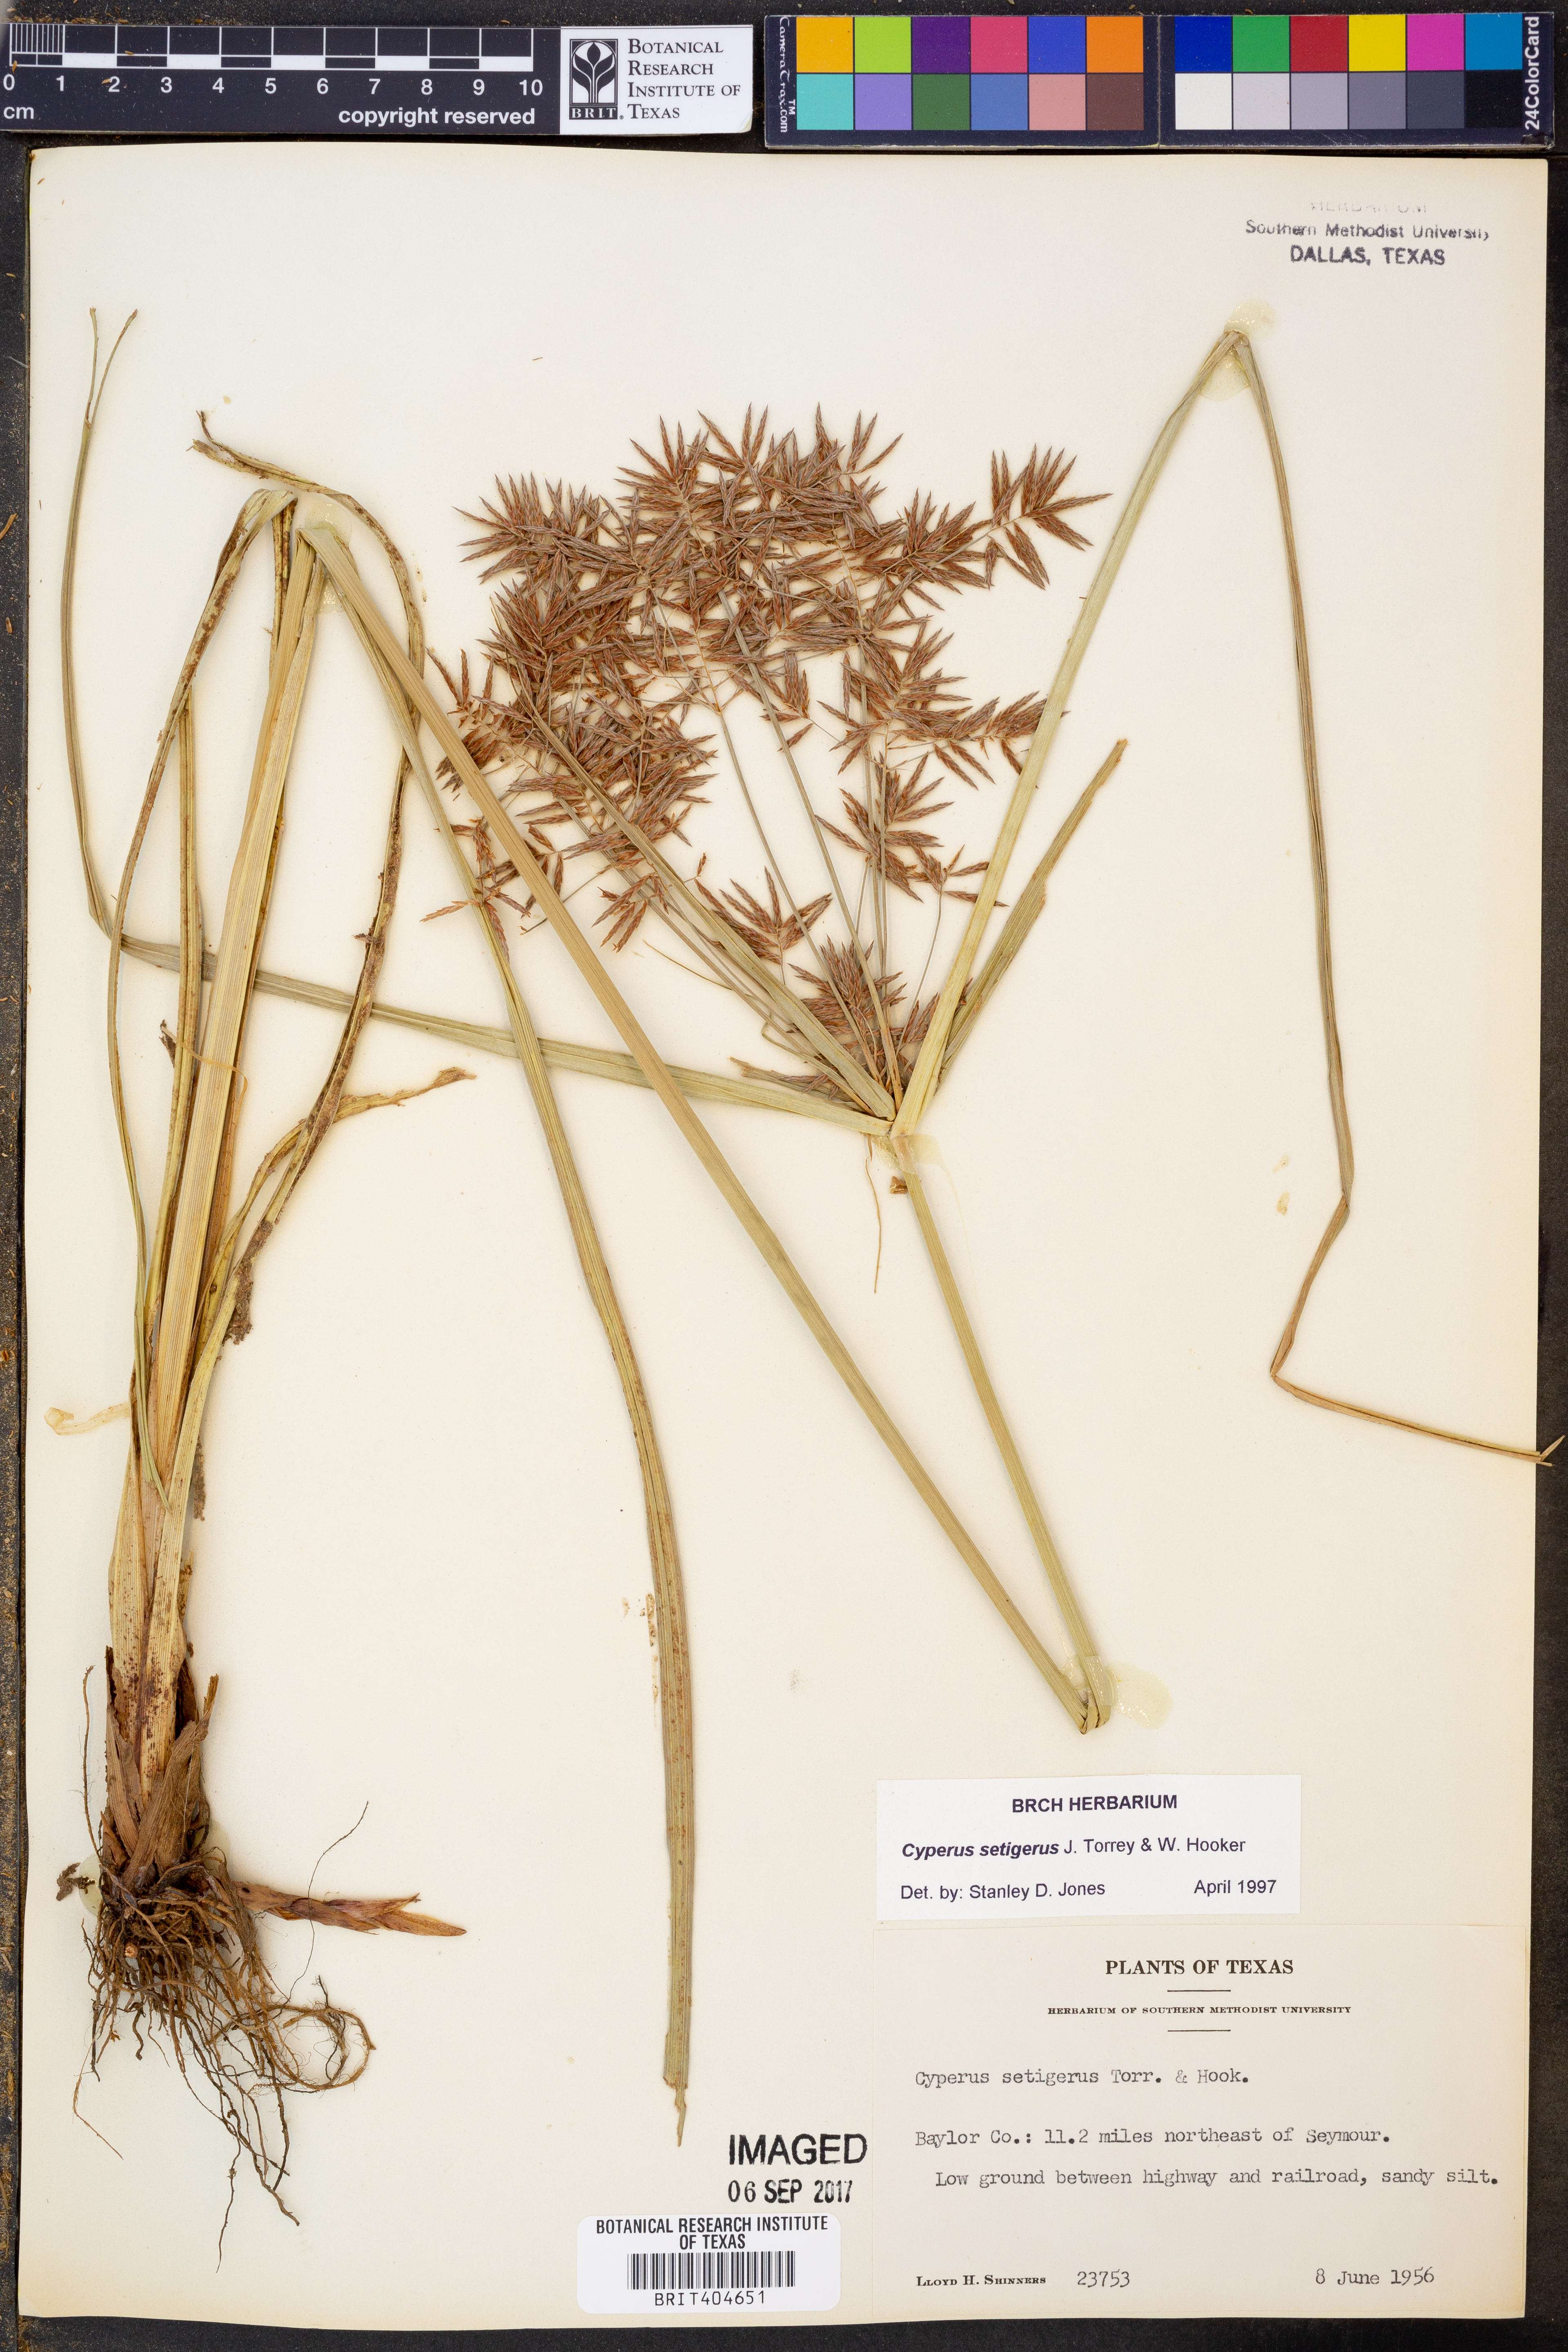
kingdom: Plantae
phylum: Tracheophyta
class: Liliopsida
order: Poales
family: Cyperaceae
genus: Cyperus
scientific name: Cyperus setigerus
